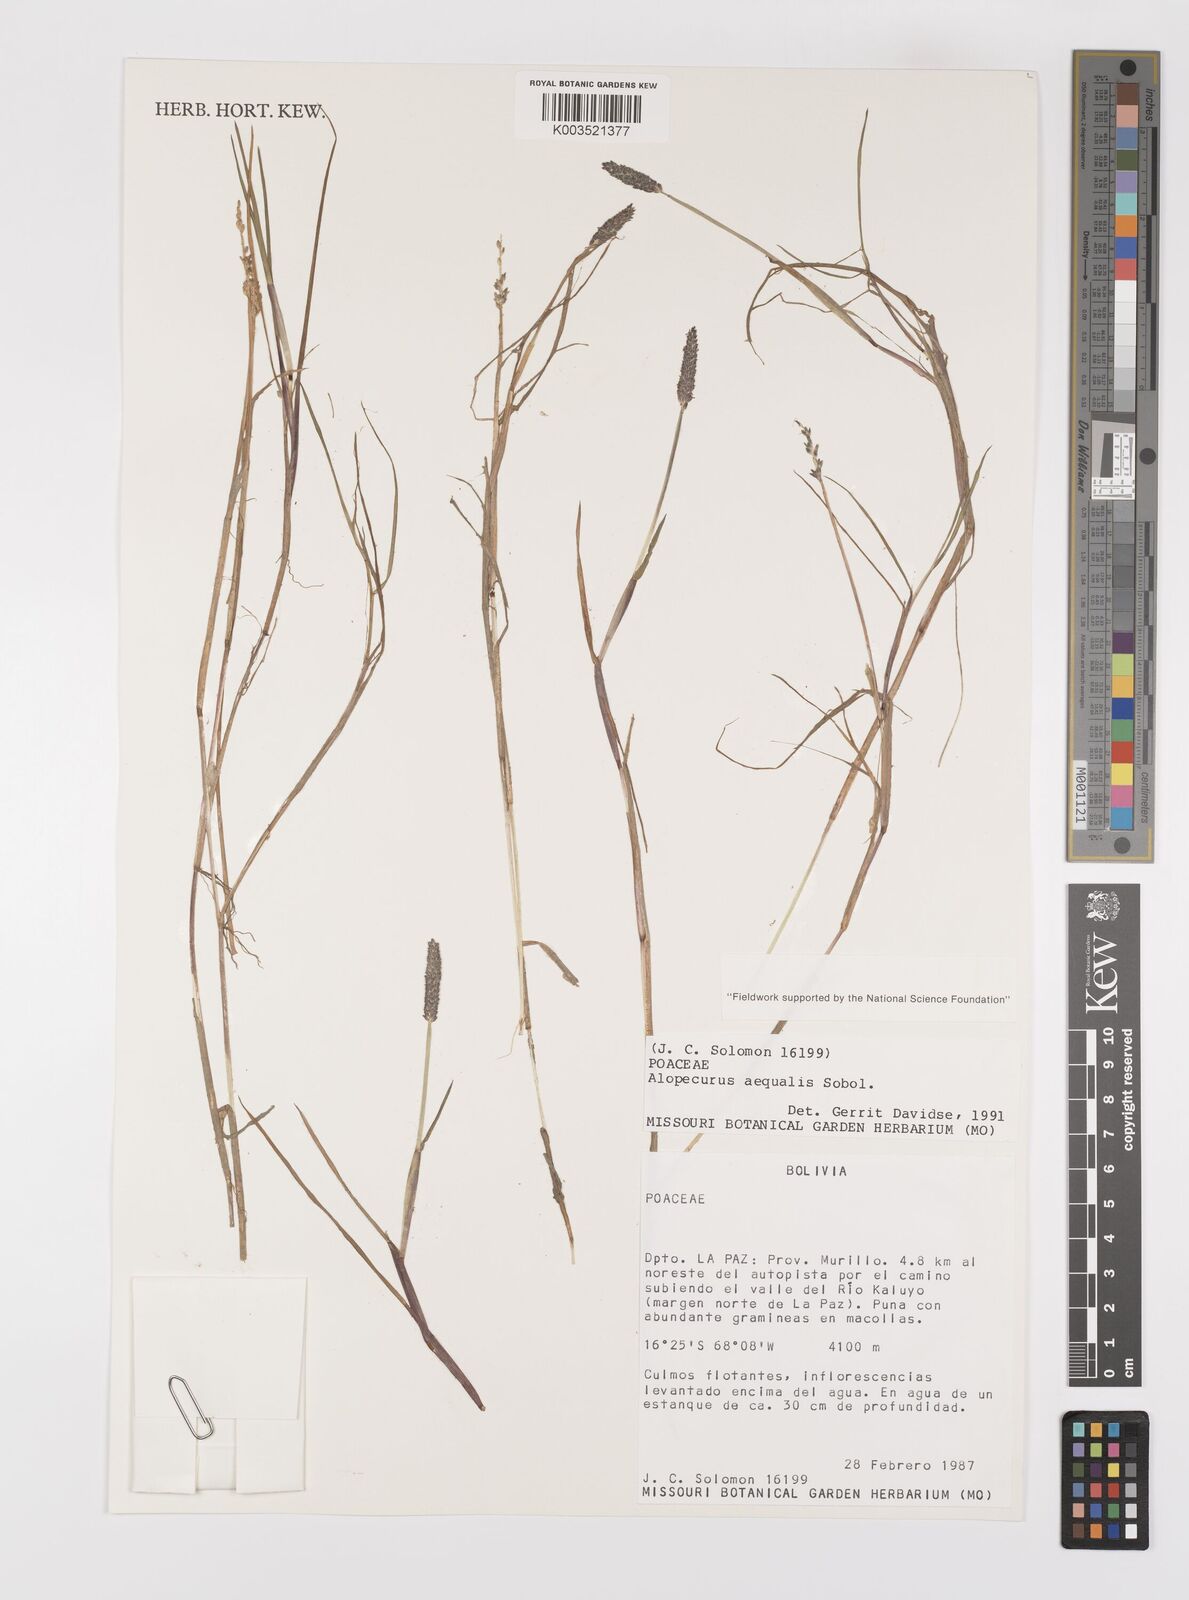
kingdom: Plantae
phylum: Tracheophyta
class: Liliopsida
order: Poales
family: Poaceae
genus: Alopecurus
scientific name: Alopecurus hitchcockii
